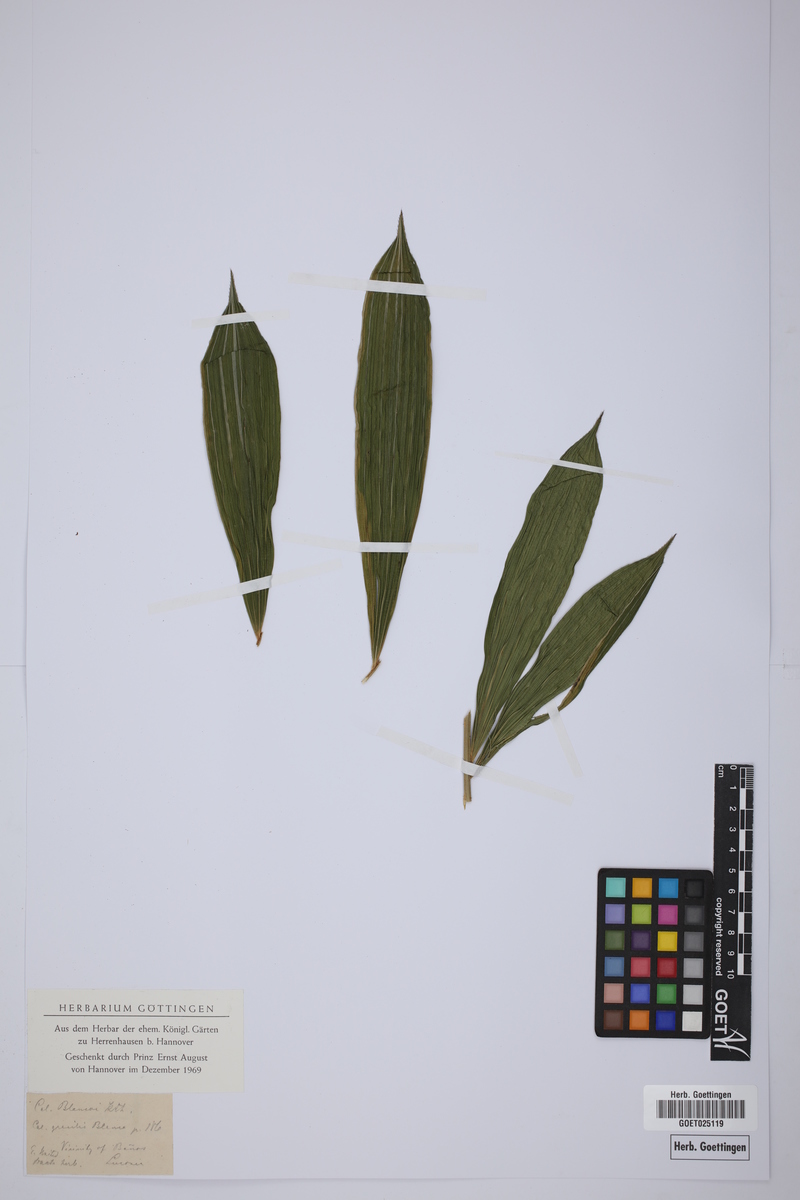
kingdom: Plantae
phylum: Tracheophyta
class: Liliopsida
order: Arecales
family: Arecaceae
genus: Calamus
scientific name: Calamus usitatus
